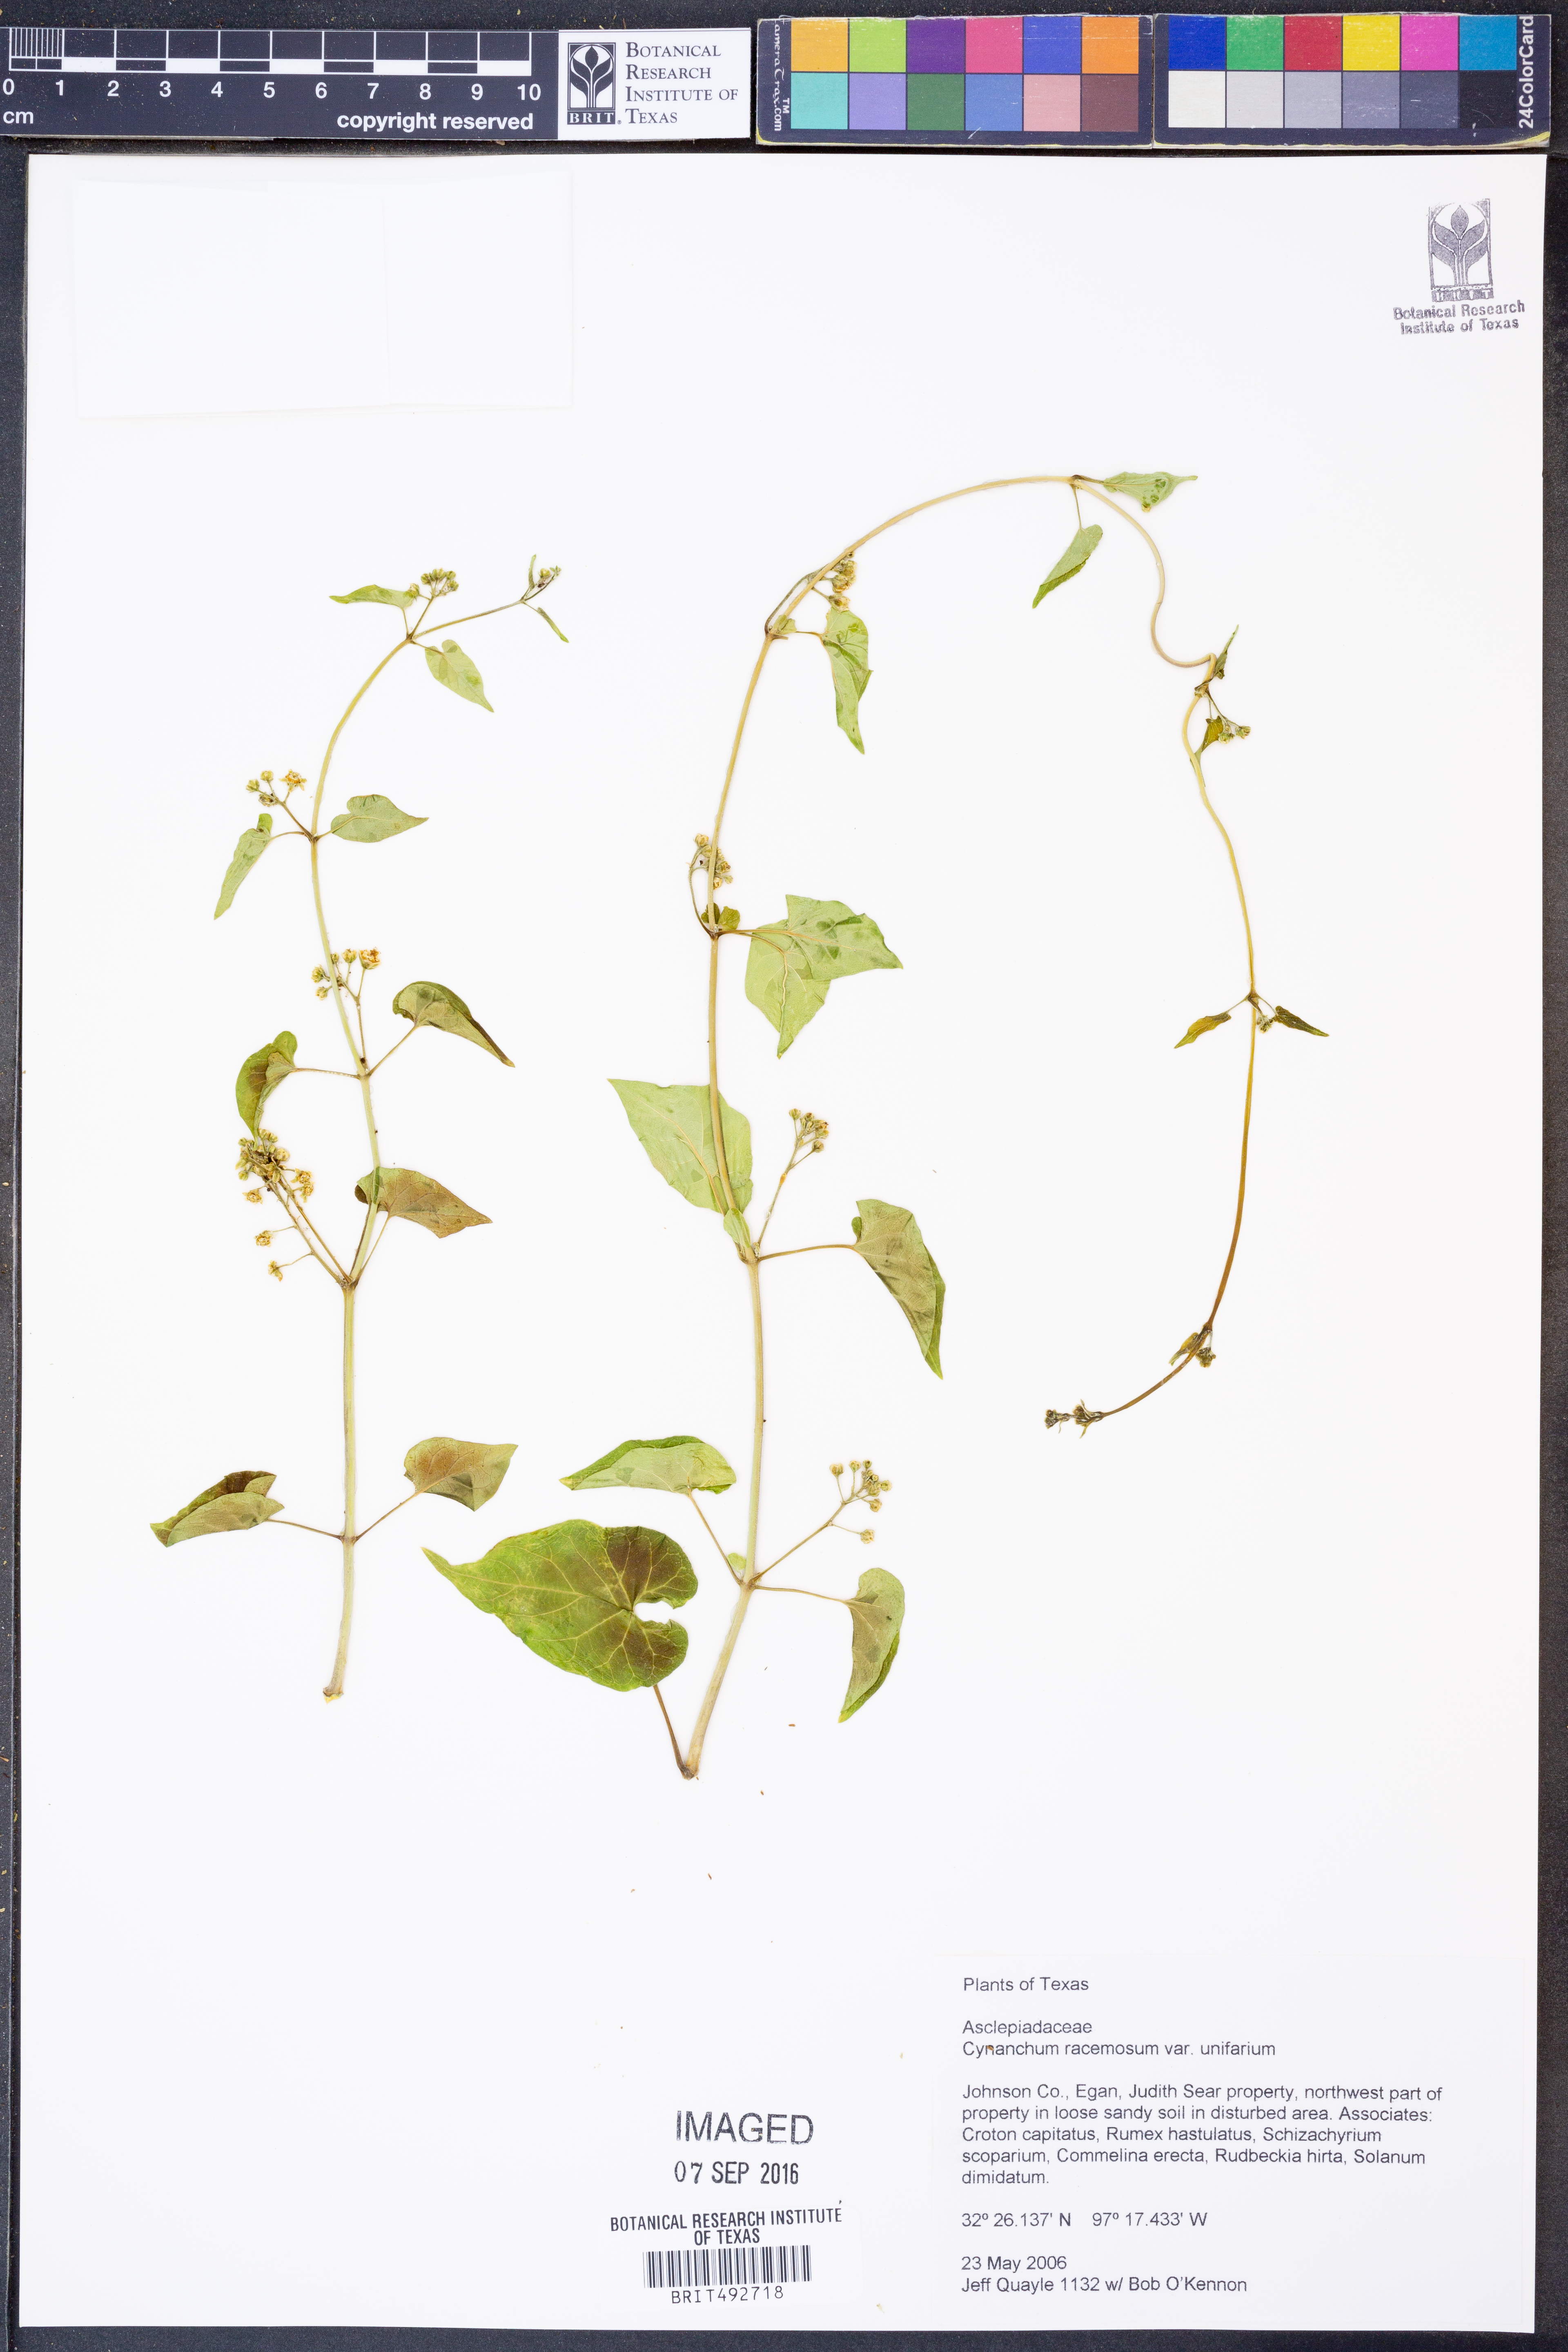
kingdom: Plantae
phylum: Tracheophyta
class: Magnoliopsida
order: Gentianales
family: Apocynaceae
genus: Cynanchum
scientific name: Cynanchum racemosum
